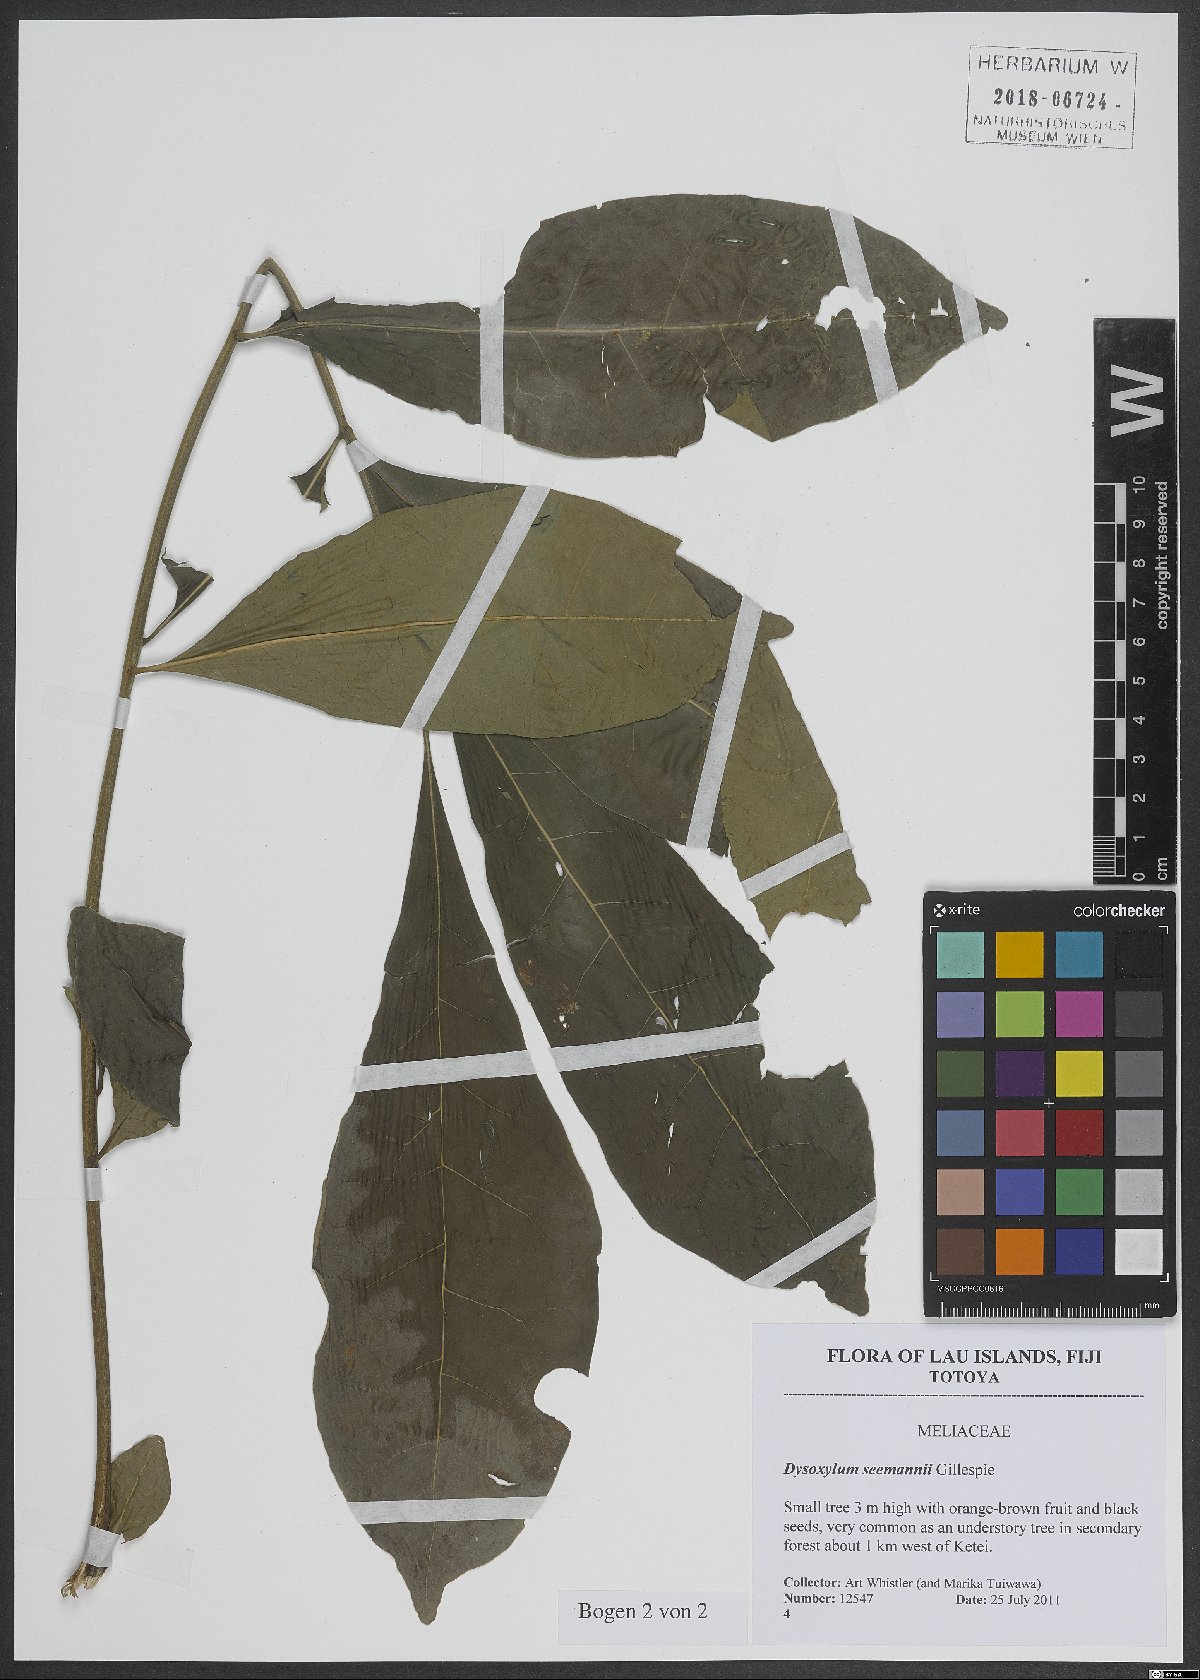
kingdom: Plantae
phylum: Tracheophyta
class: Magnoliopsida
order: Sapindales
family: Meliaceae
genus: Didymocheton
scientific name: Didymocheton multijugus
